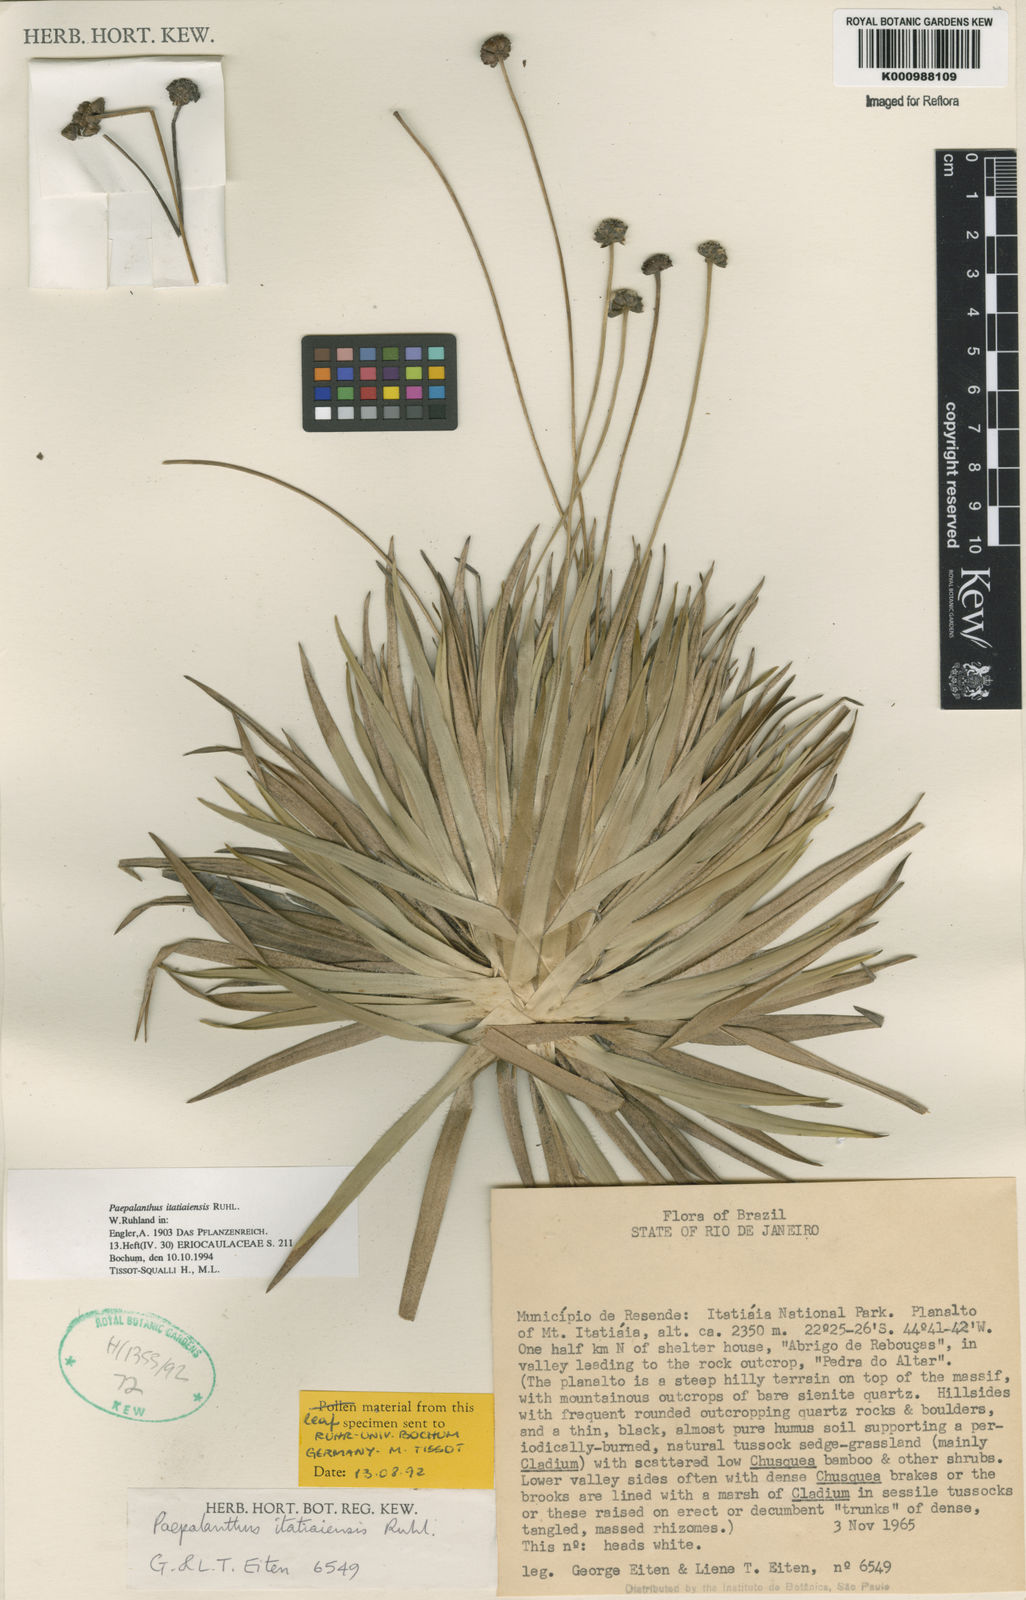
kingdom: Plantae
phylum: Tracheophyta
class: Liliopsida
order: Poales
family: Eriocaulaceae
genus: Paepalanthus
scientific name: Paepalanthus itatiaiensis
